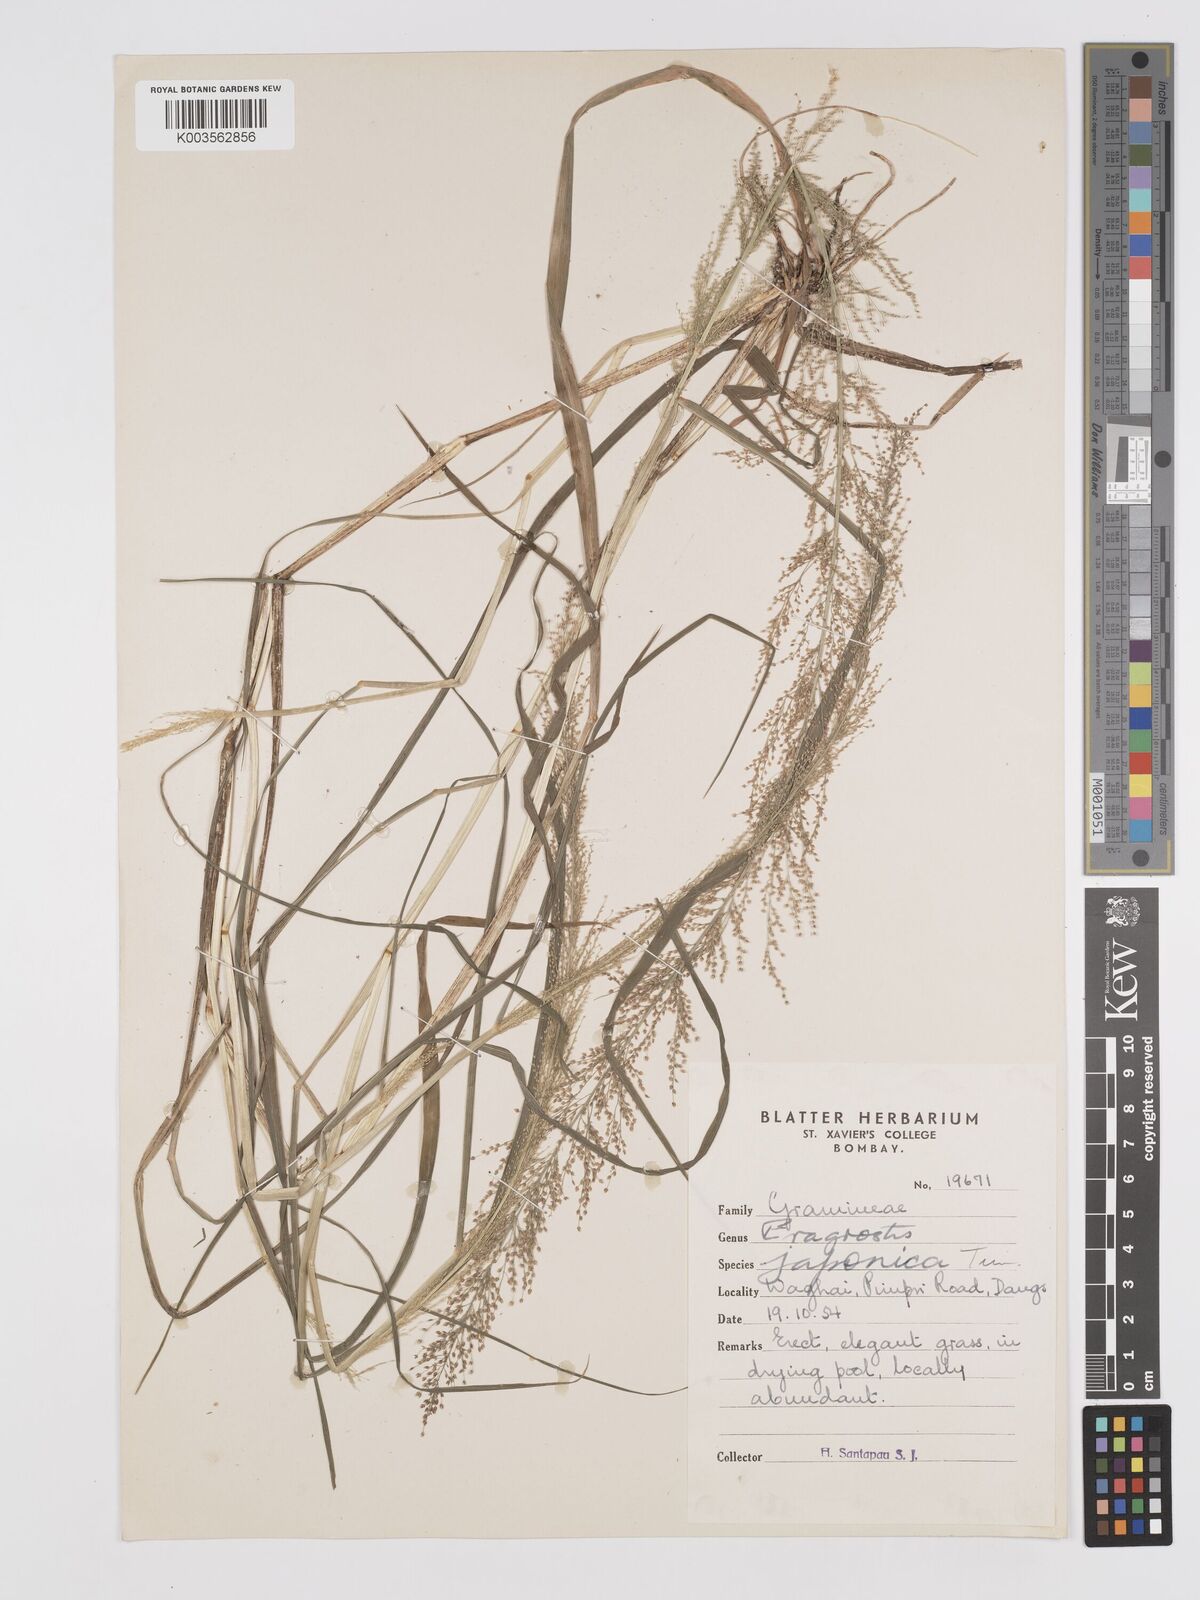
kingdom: Plantae
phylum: Tracheophyta
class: Liliopsida
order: Poales
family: Poaceae
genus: Eragrostis
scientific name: Eragrostis japonica
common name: Pond lovegrass
